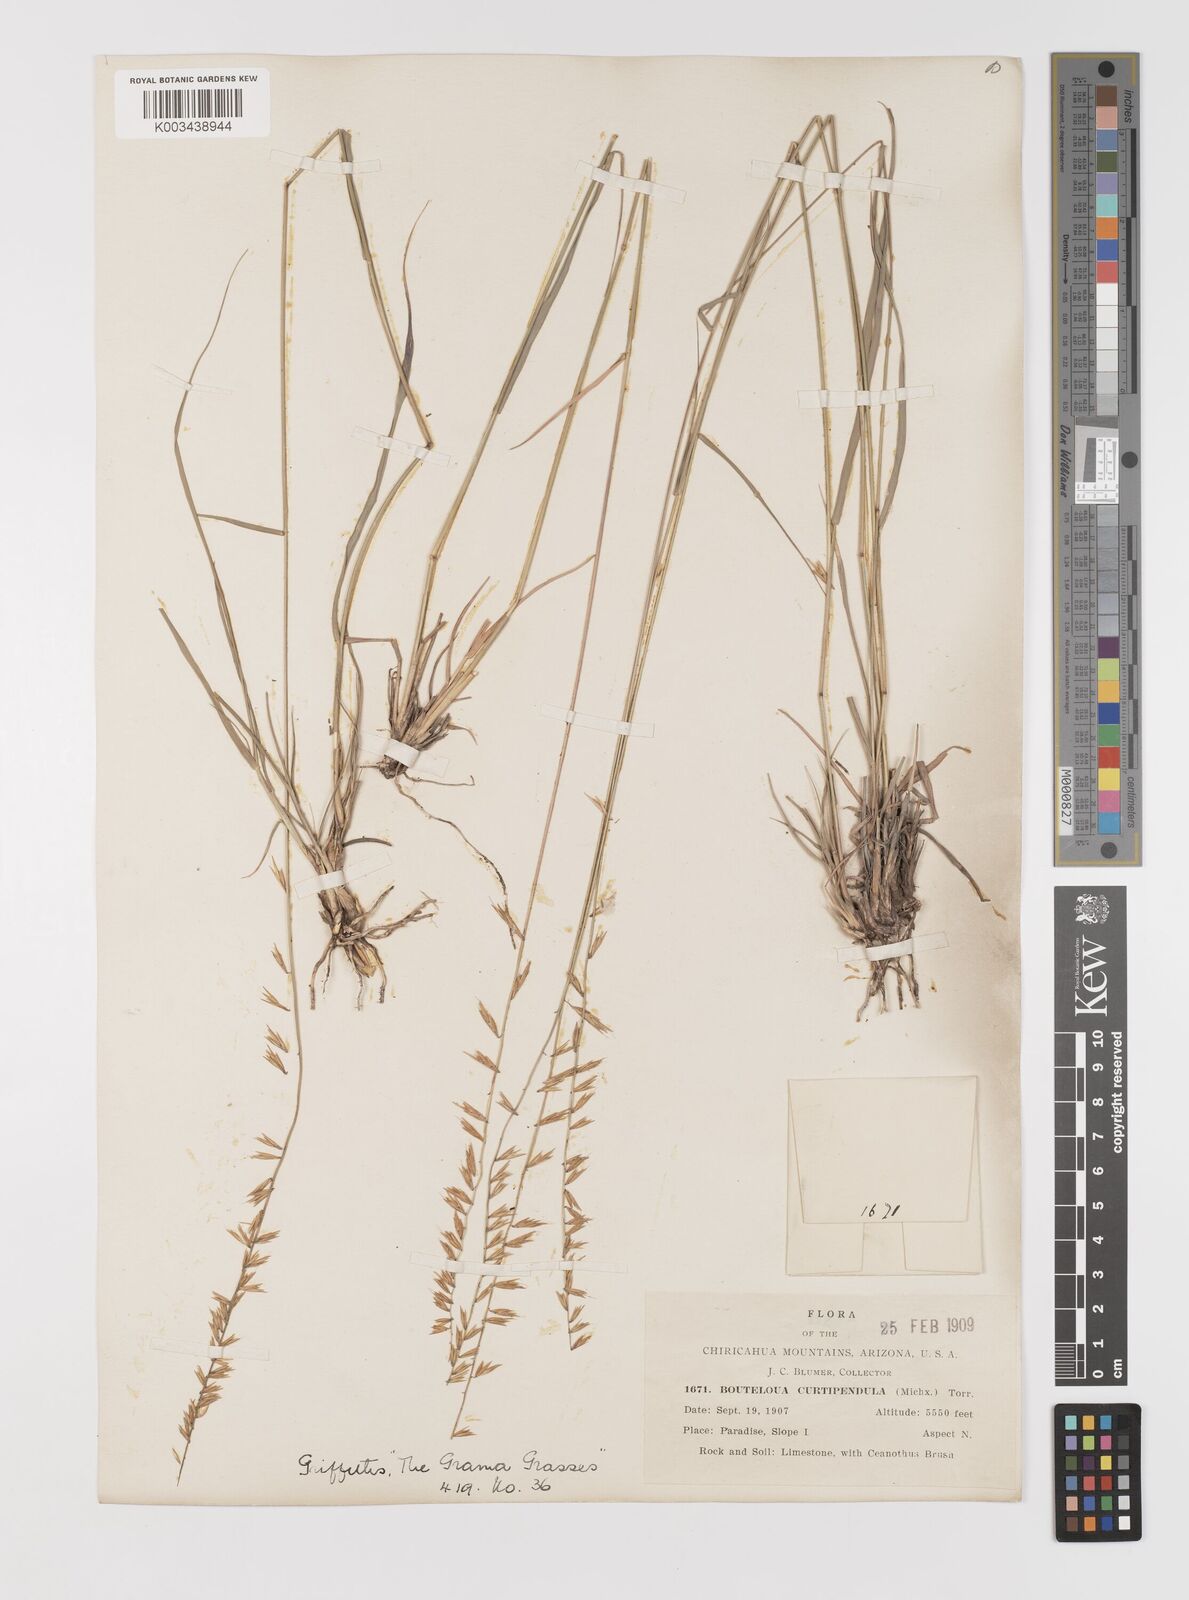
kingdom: Plantae
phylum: Tracheophyta
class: Liliopsida
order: Poales
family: Poaceae
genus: Bouteloua
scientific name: Bouteloua curtipendula
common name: Side-oats grama
